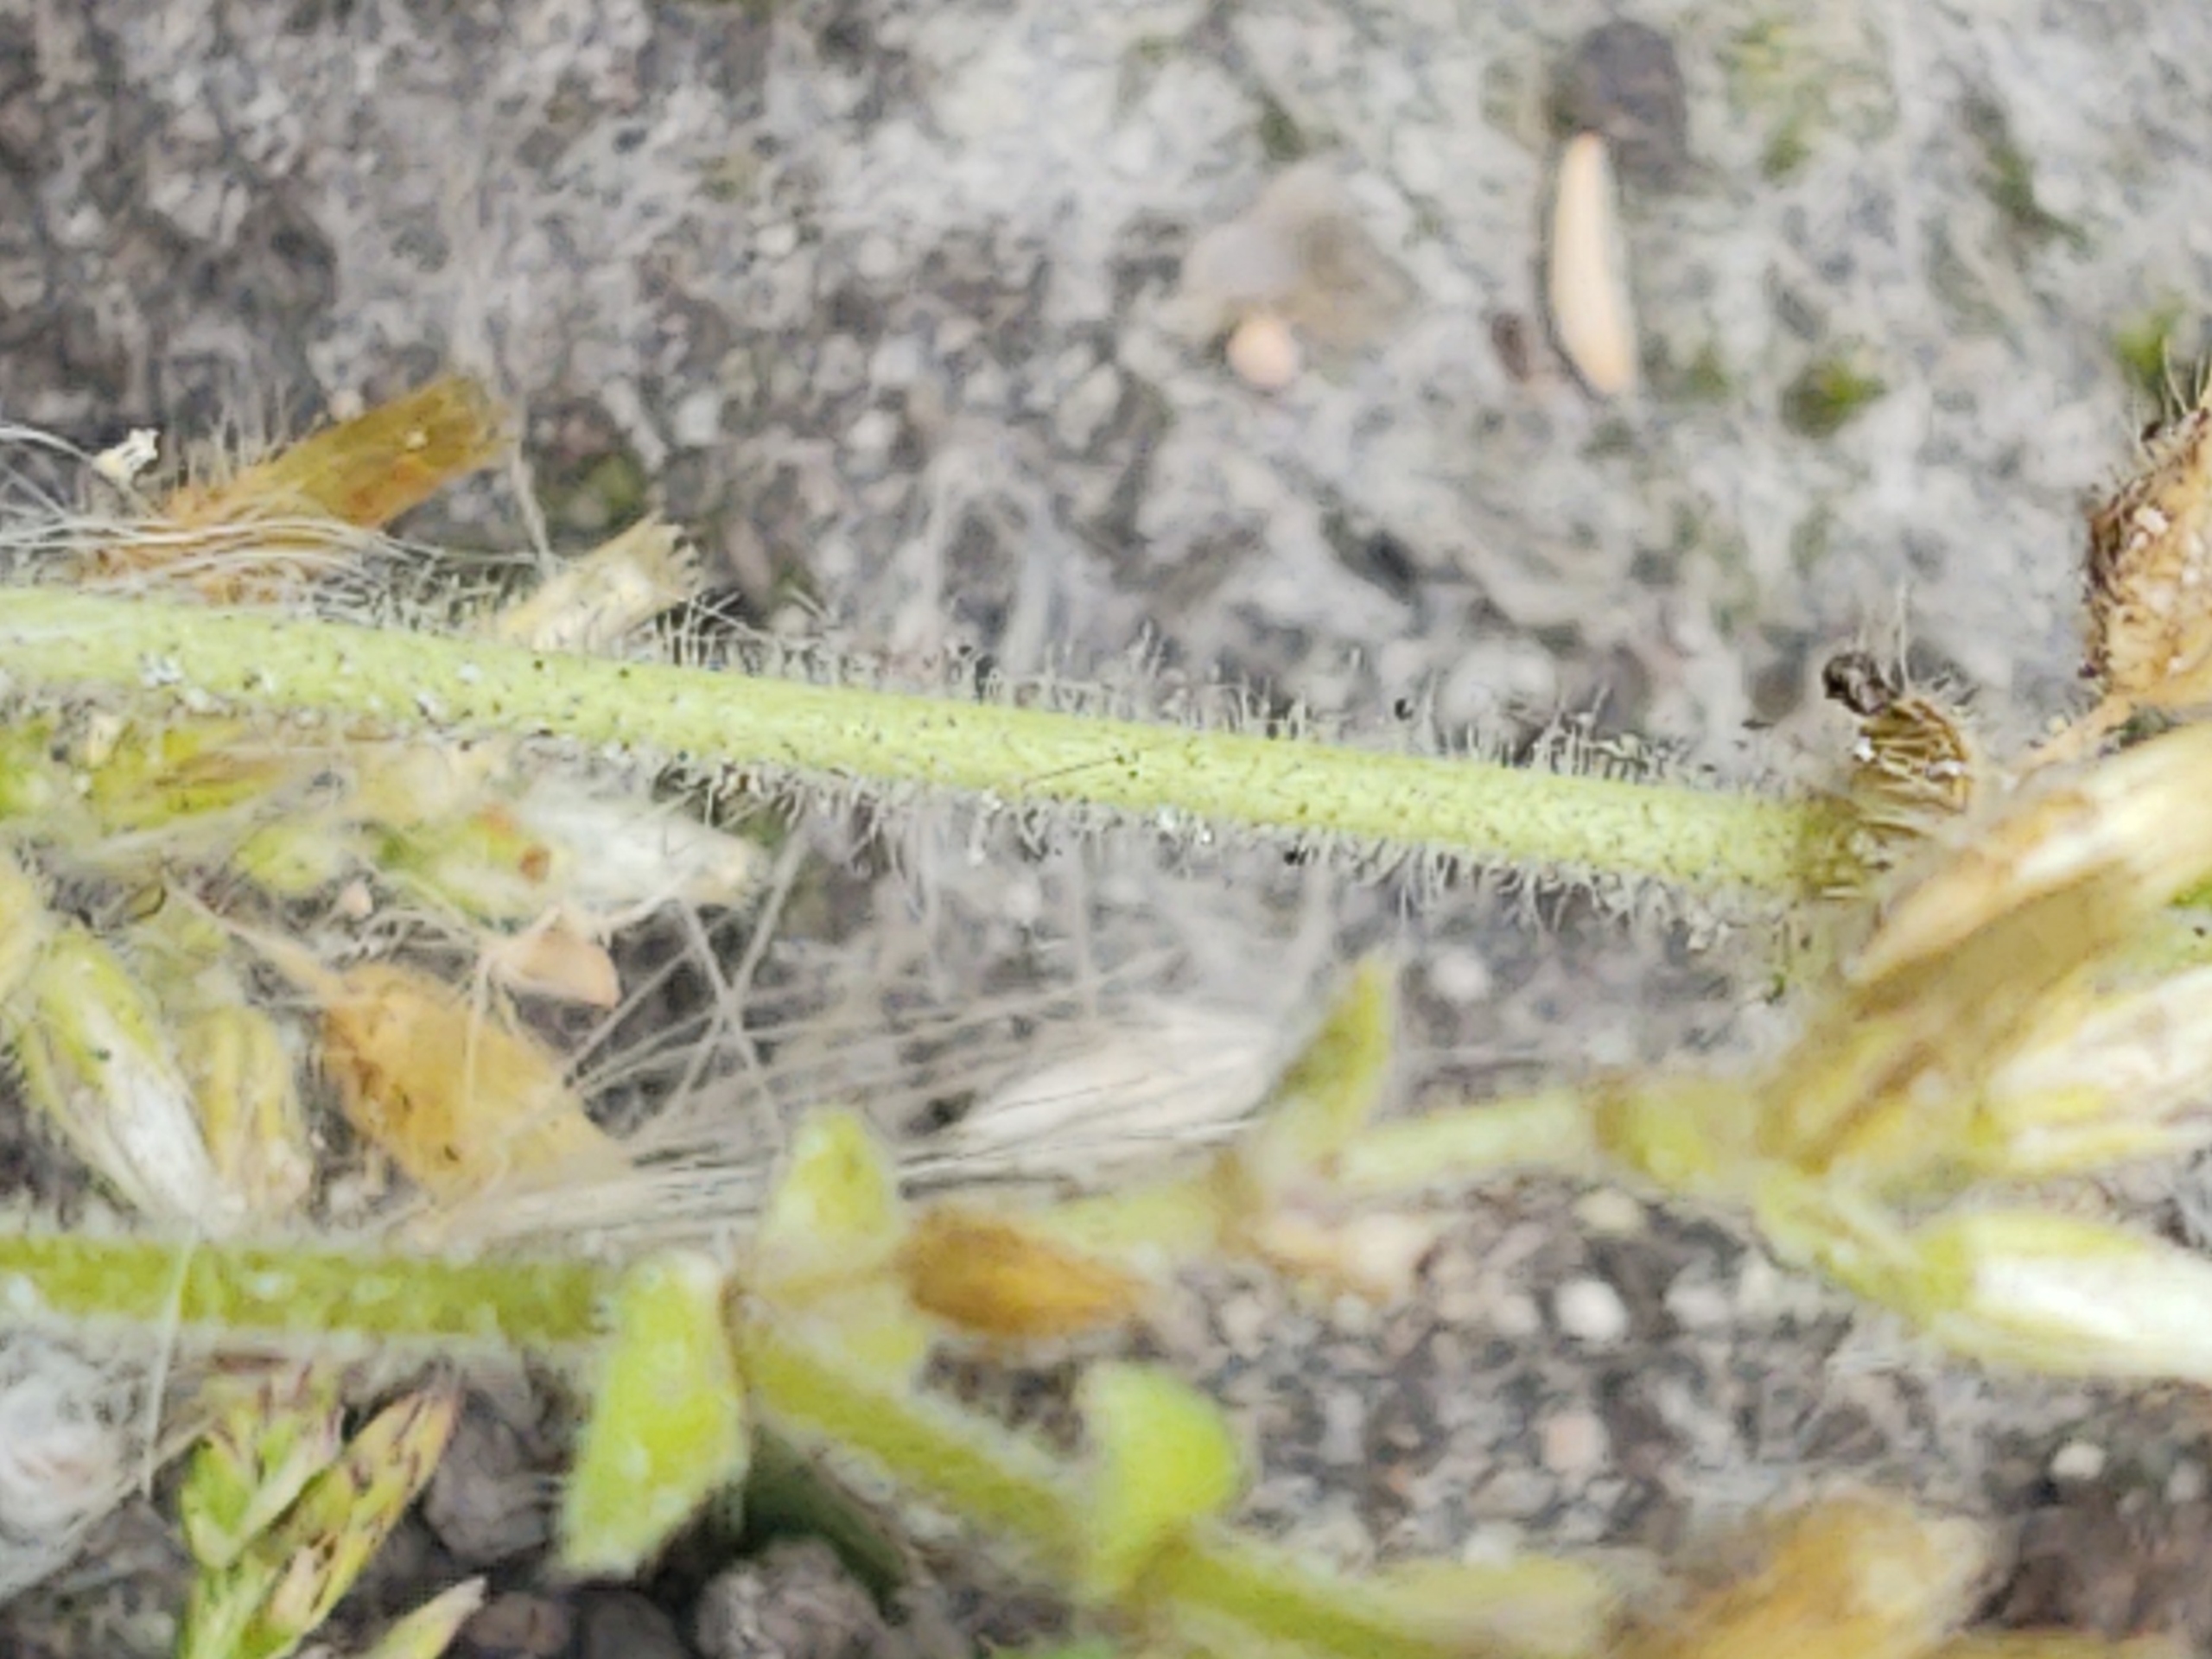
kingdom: Plantae
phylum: Tracheophyta
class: Magnoliopsida
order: Caryophyllales
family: Caryophyllaceae
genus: Cerastium
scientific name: Cerastium glomeratum
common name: Opret hønsetarm
